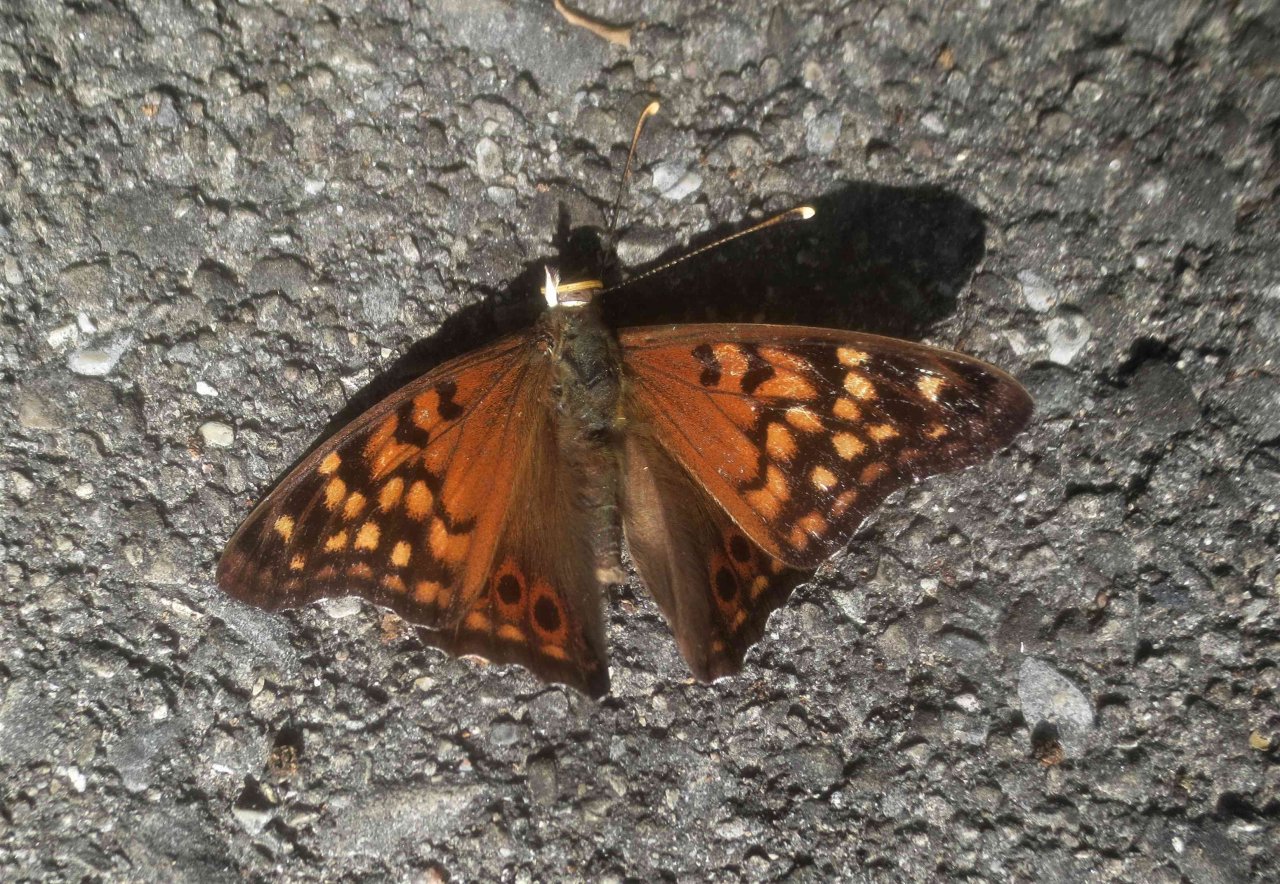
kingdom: Animalia
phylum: Arthropoda
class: Insecta
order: Lepidoptera
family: Nymphalidae
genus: Asterocampa
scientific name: Asterocampa clyton
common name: Tawny Emperor
